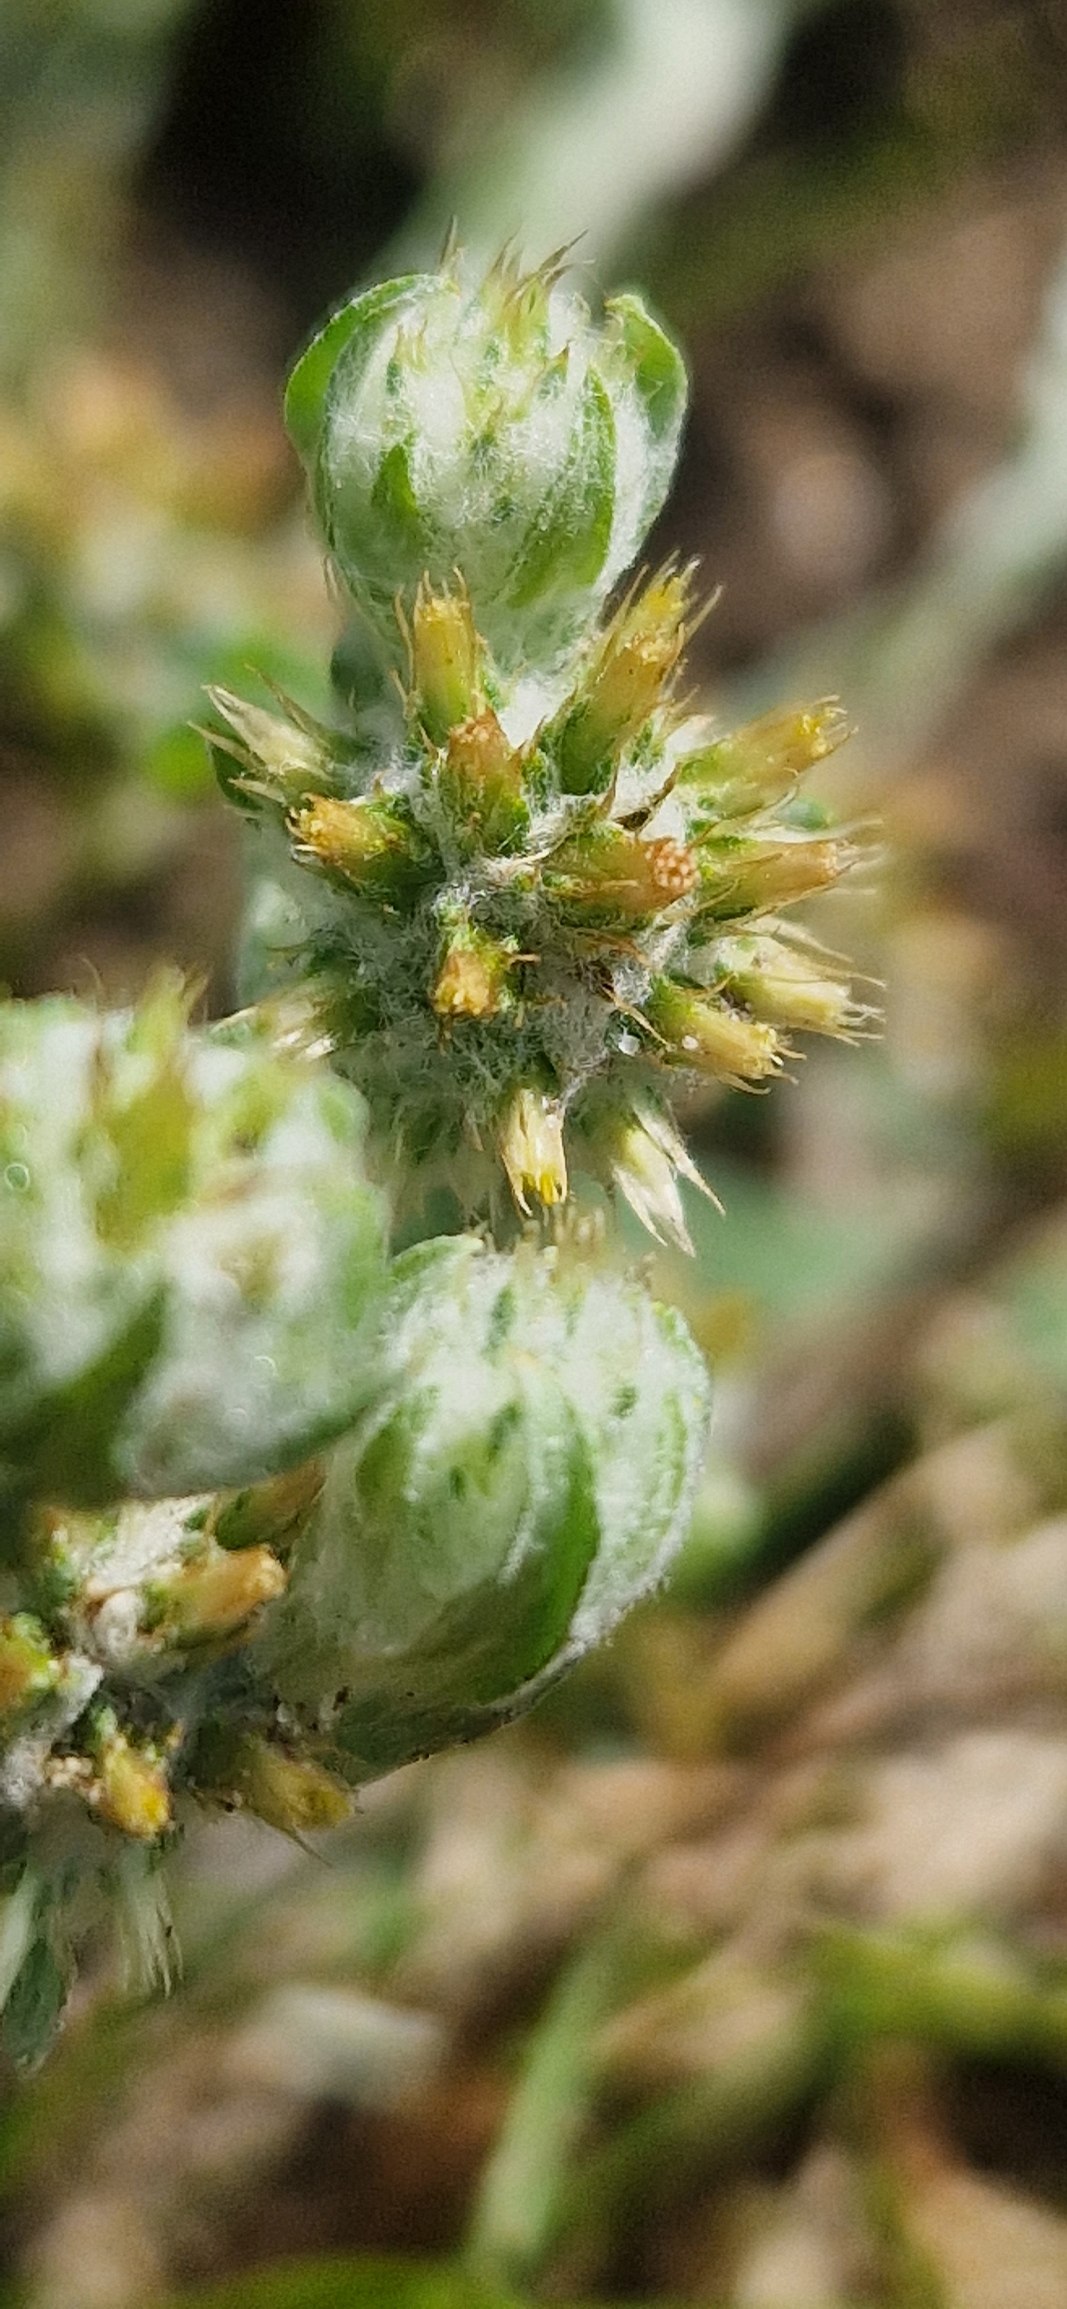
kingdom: Plantae
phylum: Tracheophyta
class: Magnoliopsida
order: Asterales
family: Asteraceae
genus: Filago
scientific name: Filago germanica
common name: Kugle-museurt
